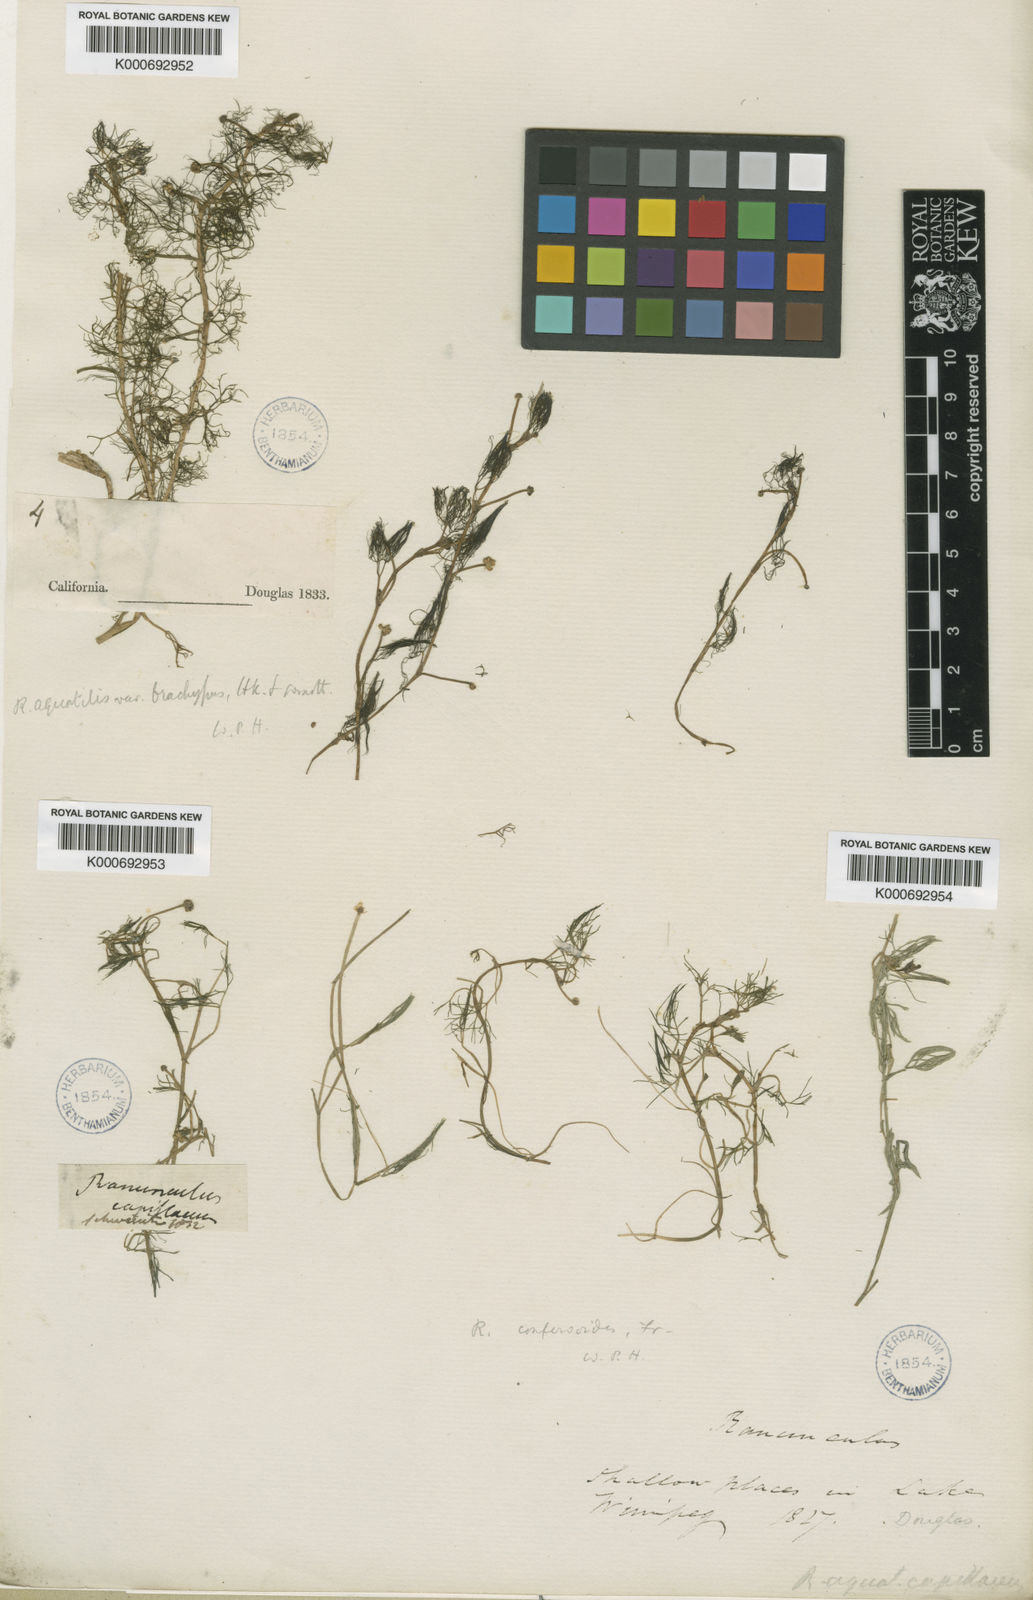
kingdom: Plantae
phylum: Tracheophyta
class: Magnoliopsida
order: Ranunculales
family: Ranunculaceae
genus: Ranunculus
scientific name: Ranunculus aquatilis
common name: Common water-crowfoot
